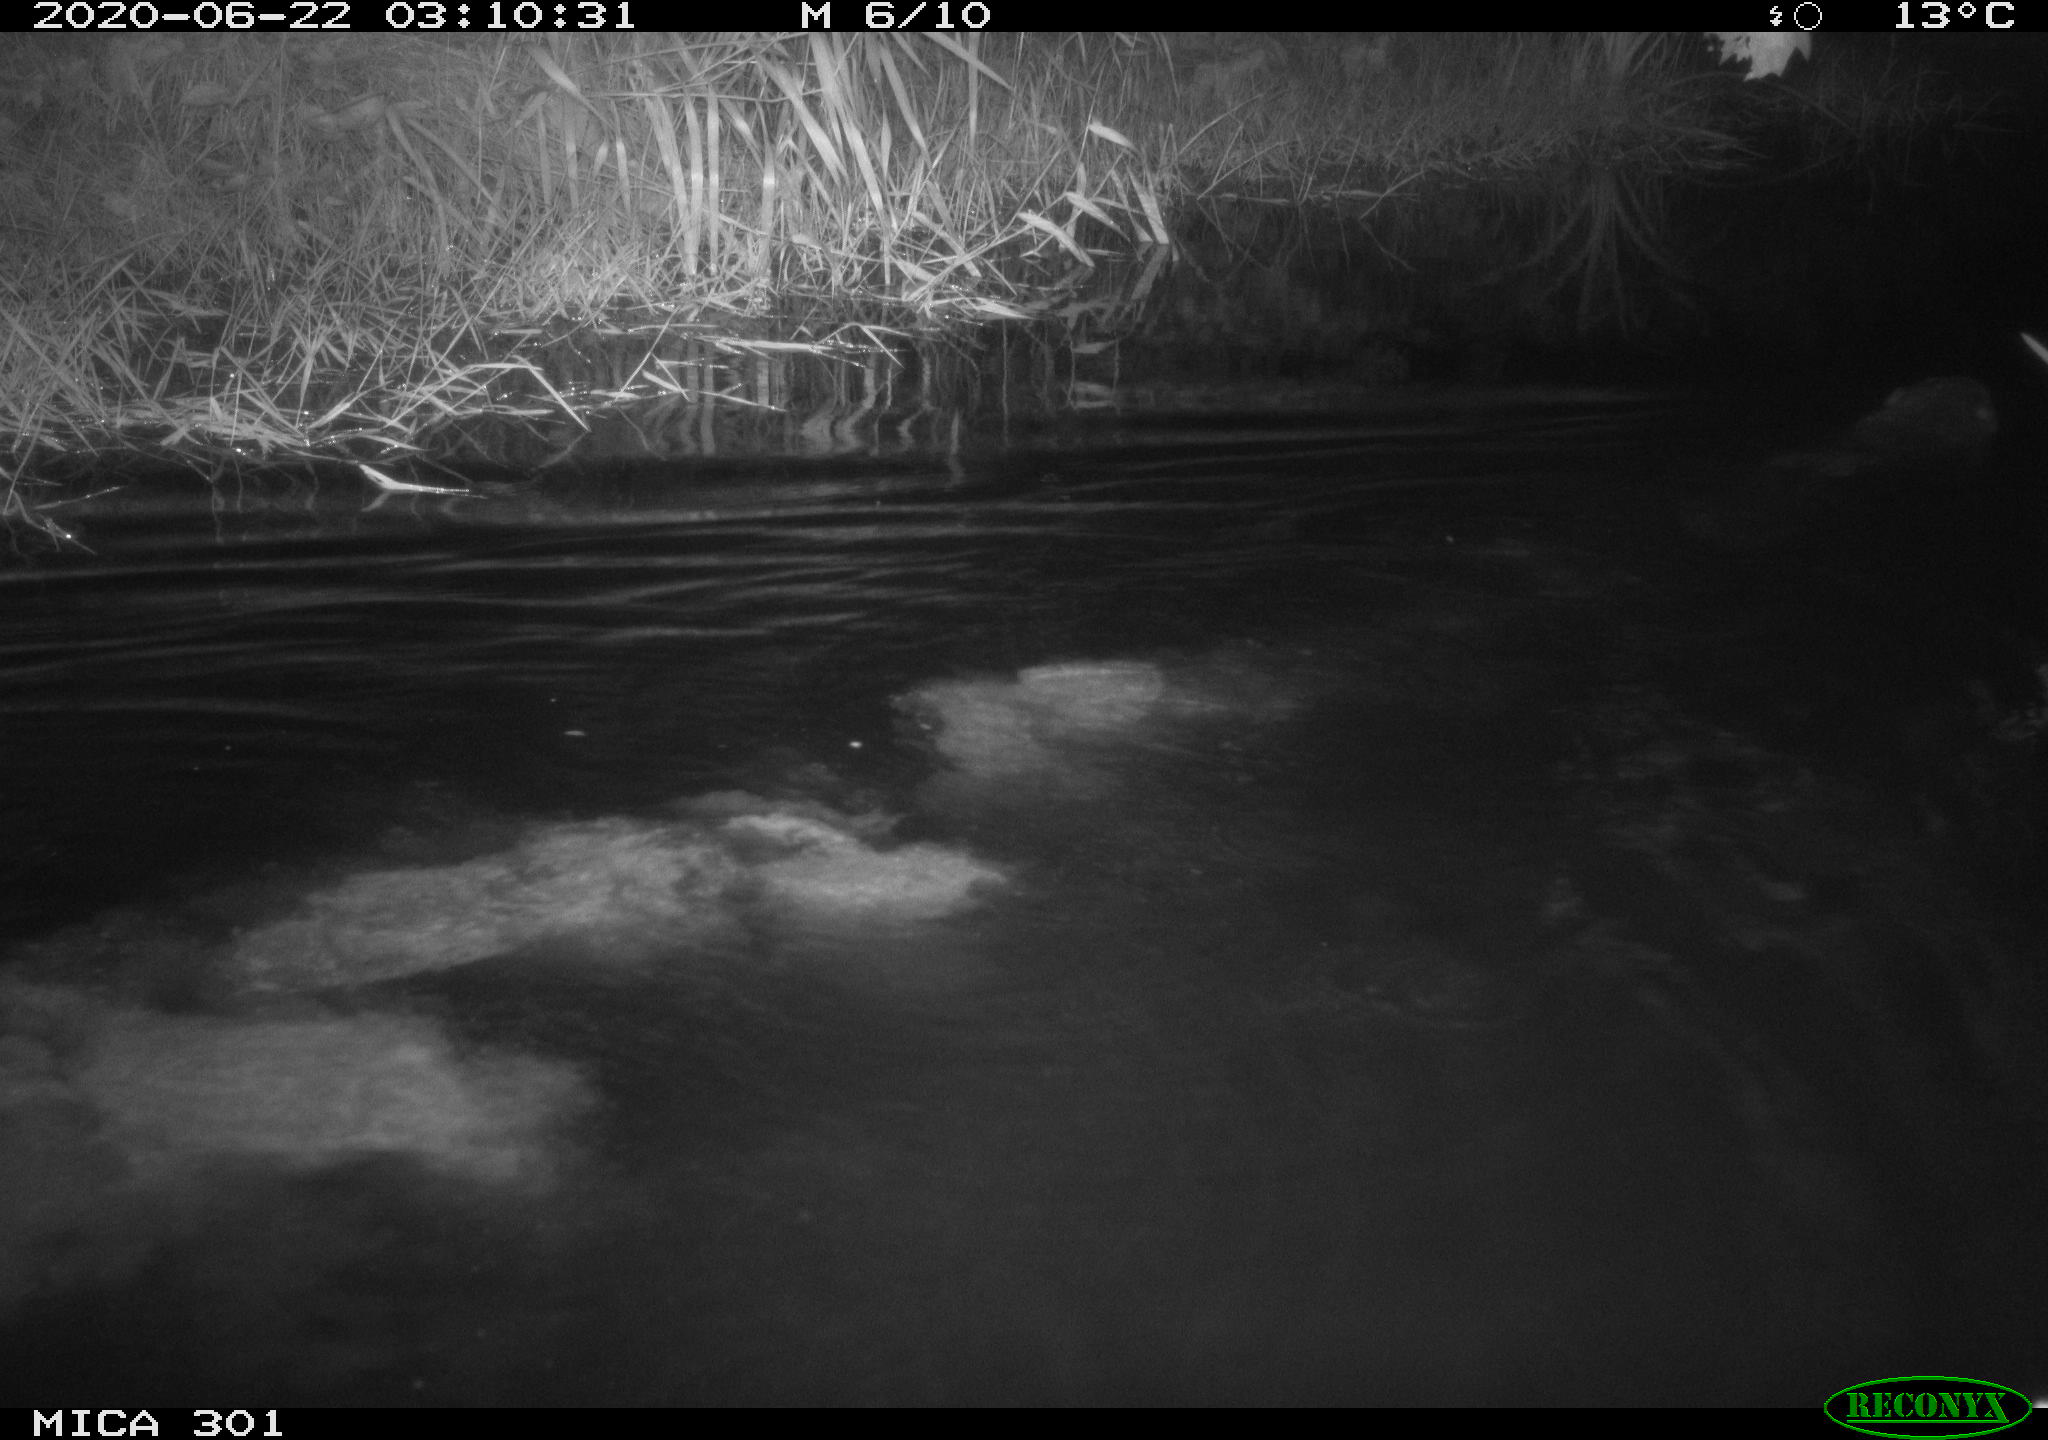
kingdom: Animalia
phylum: Chordata
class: Mammalia
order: Rodentia
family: Castoridae
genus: Castor
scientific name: Castor fiber
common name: Eurasian beaver
